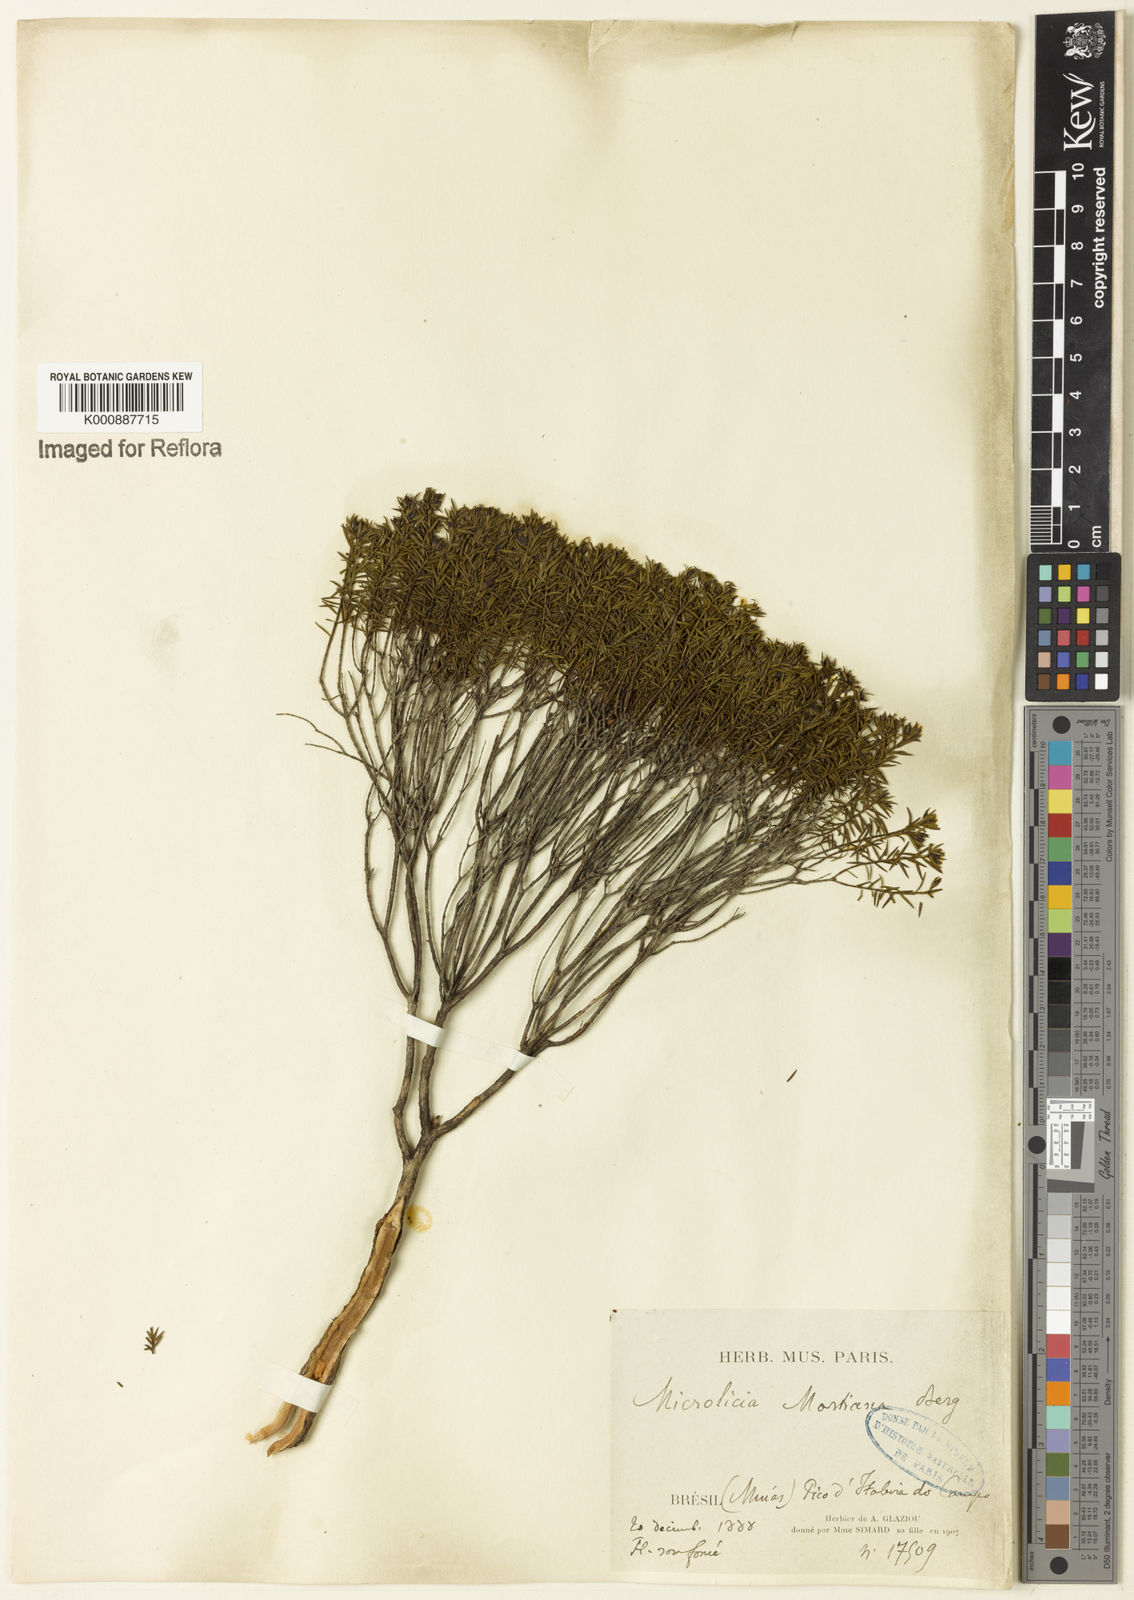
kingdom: Plantae
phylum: Tracheophyta
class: Magnoliopsida
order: Myrtales
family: Melastomataceae
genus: Microlicia
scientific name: Microlicia martiana
